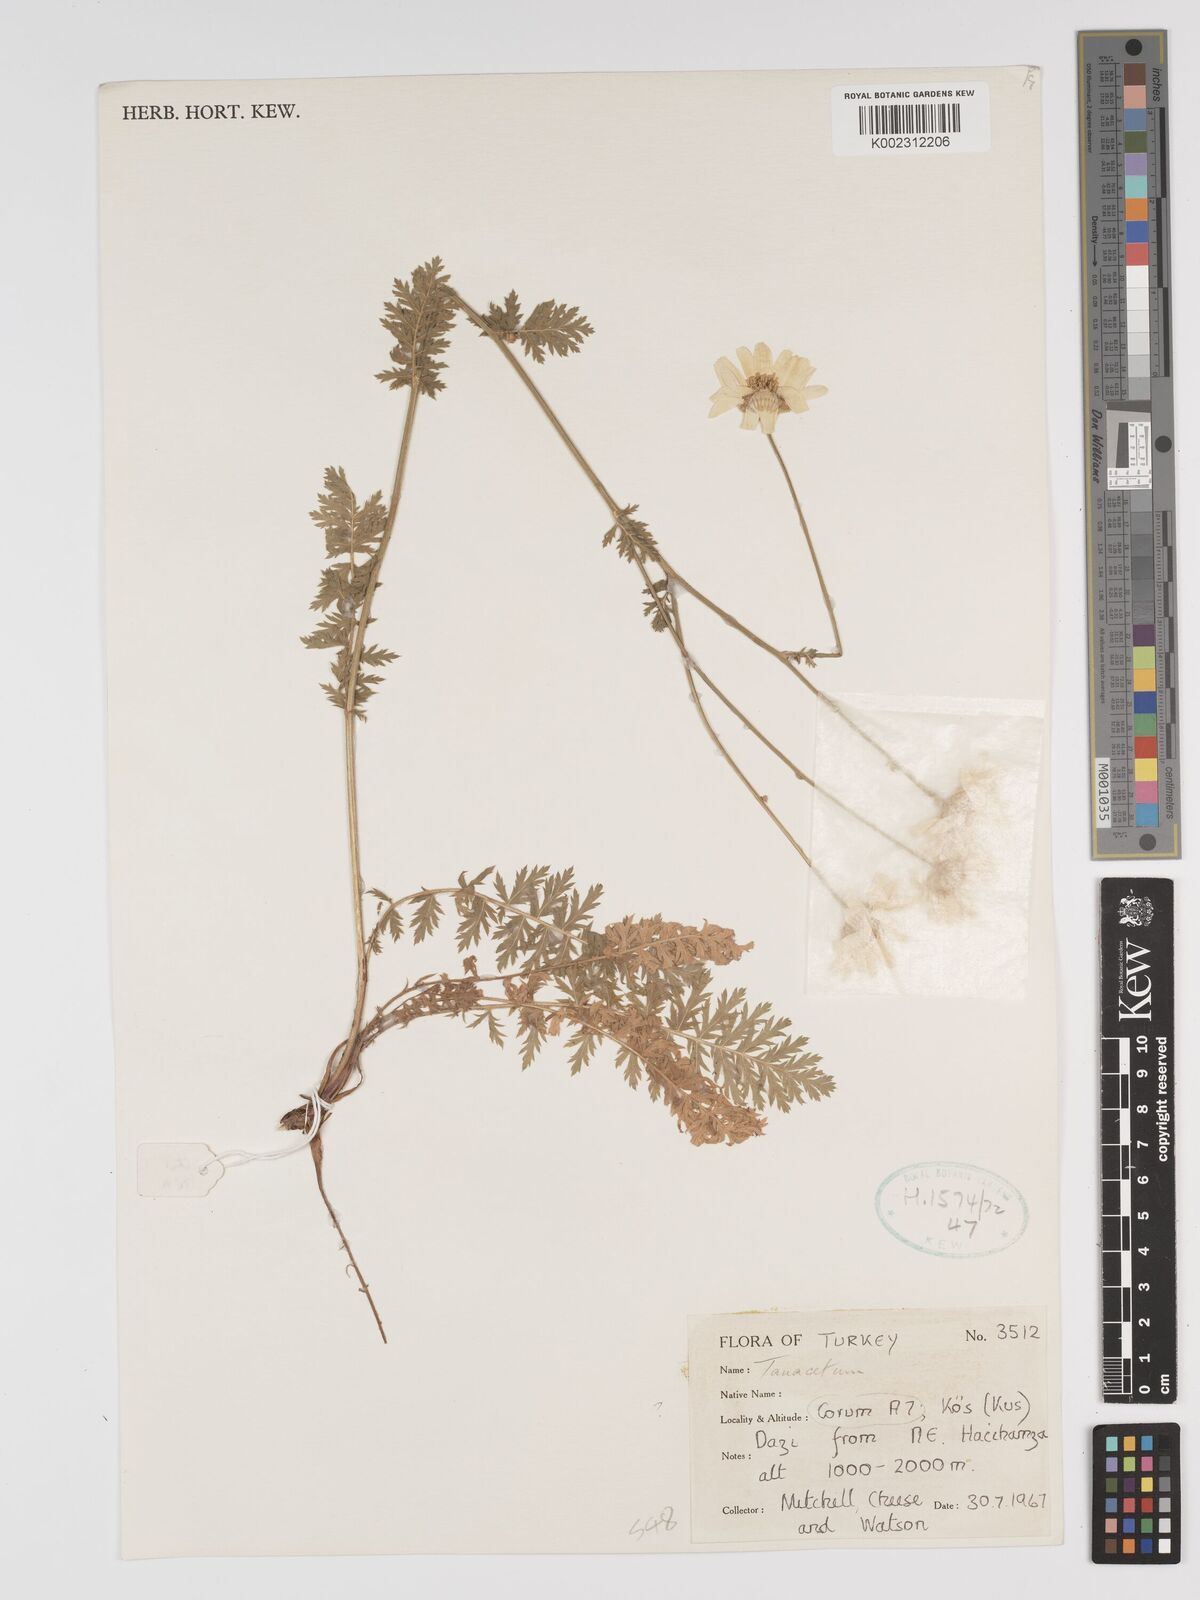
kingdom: Plantae
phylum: Tracheophyta
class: Magnoliopsida
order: Asterales
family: Asteraceae
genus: Tanacetum
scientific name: Tanacetum
